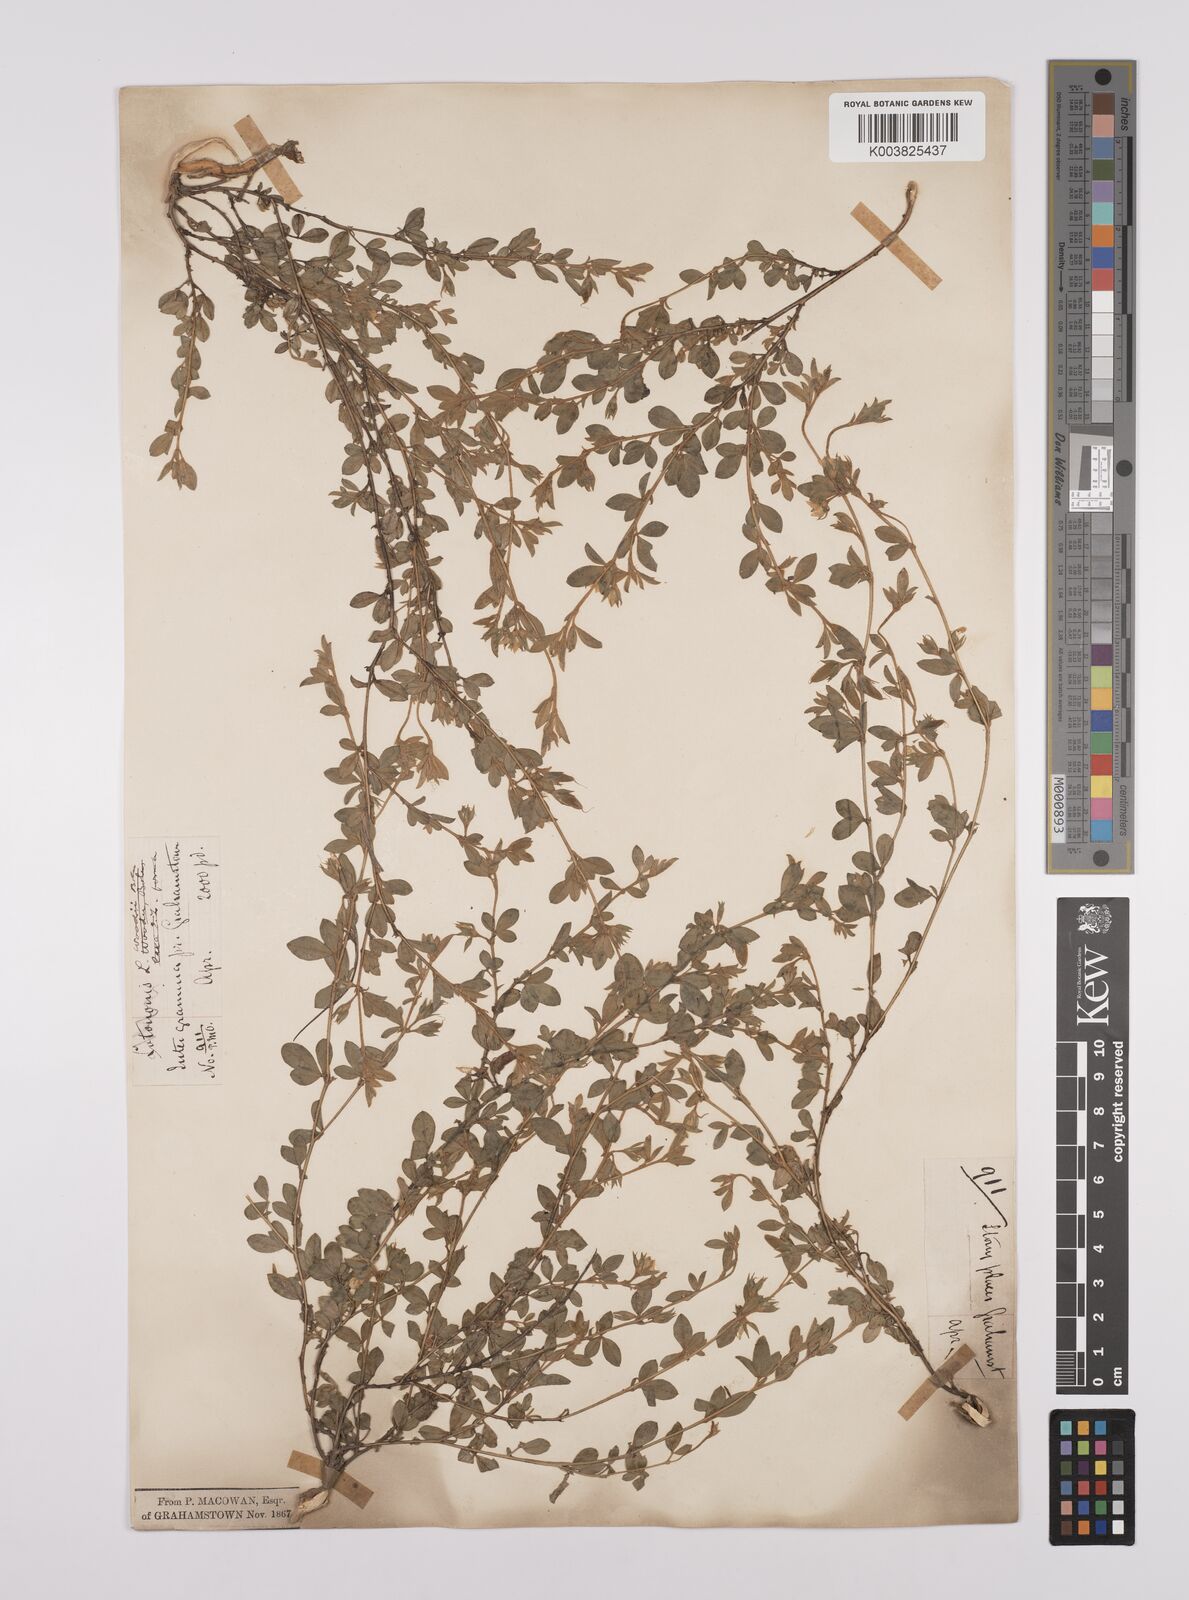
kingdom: Plantae
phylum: Tracheophyta
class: Magnoliopsida
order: Fabales
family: Fabaceae
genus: Lotononis
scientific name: Lotononis laxa
